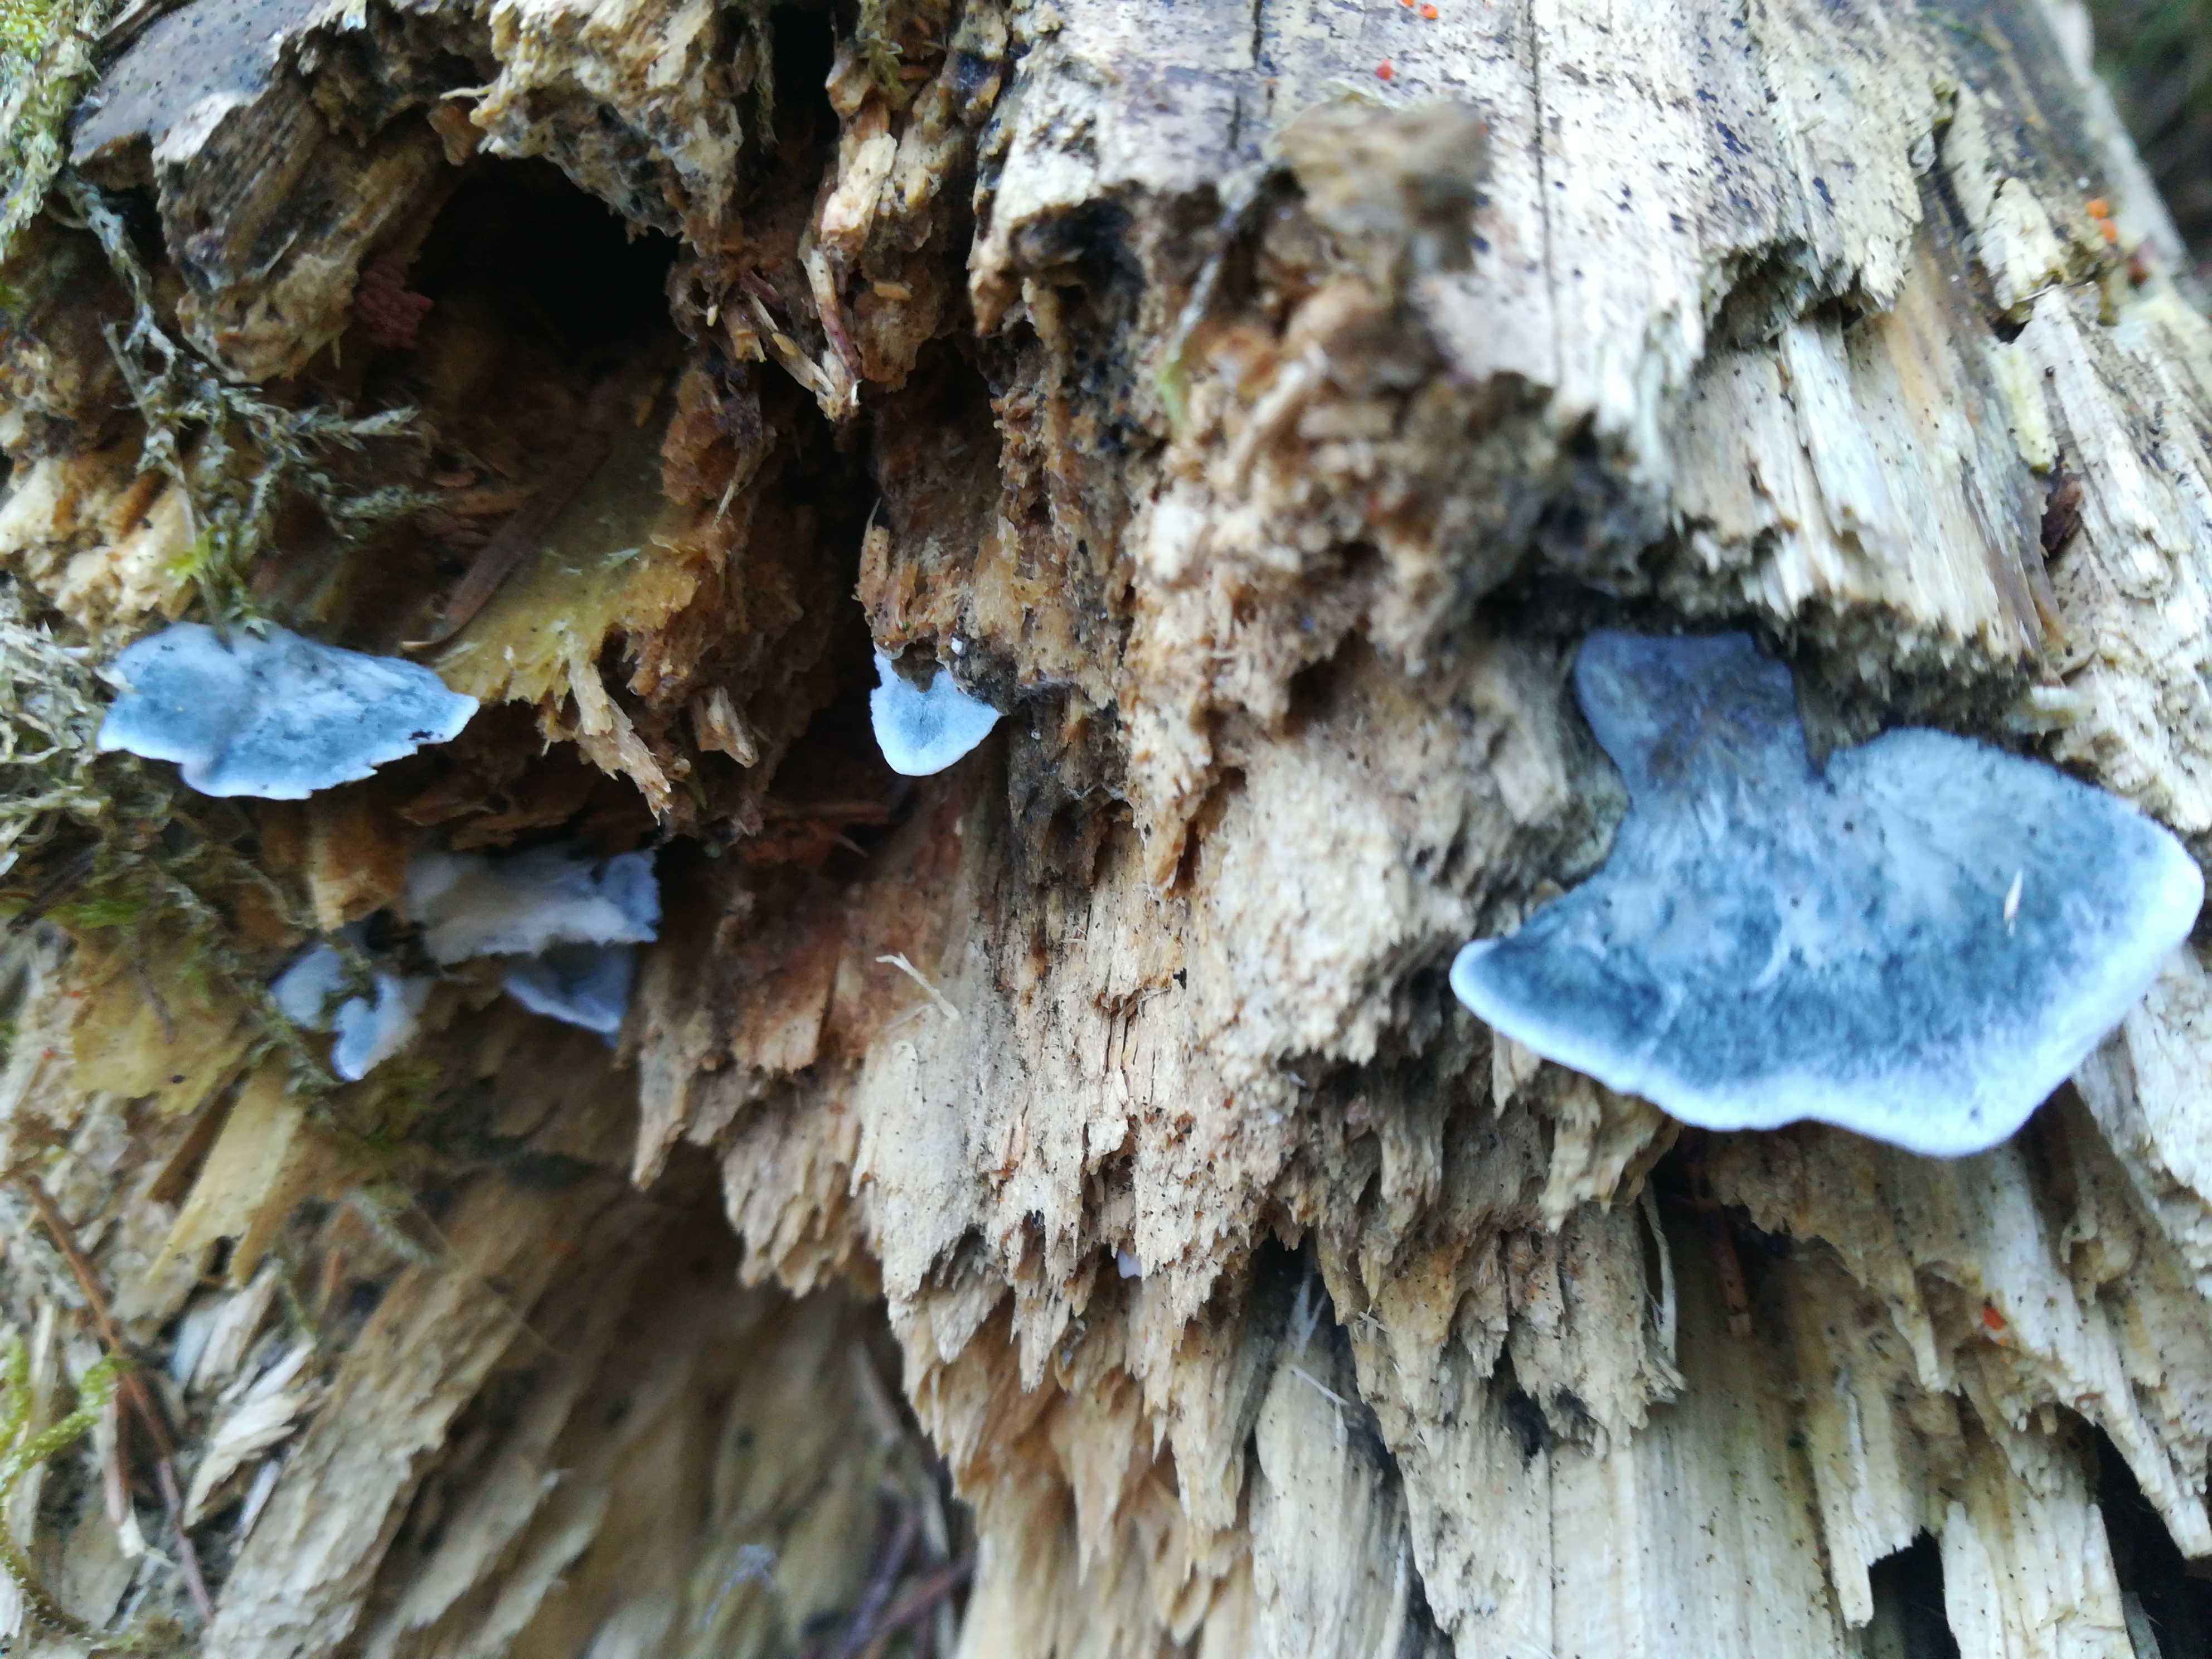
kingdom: Fungi
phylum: Basidiomycota
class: Agaricomycetes
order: Polyporales
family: Polyporaceae
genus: Cyanosporus
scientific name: Cyanosporus caesius
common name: blålig kødporesvamp
